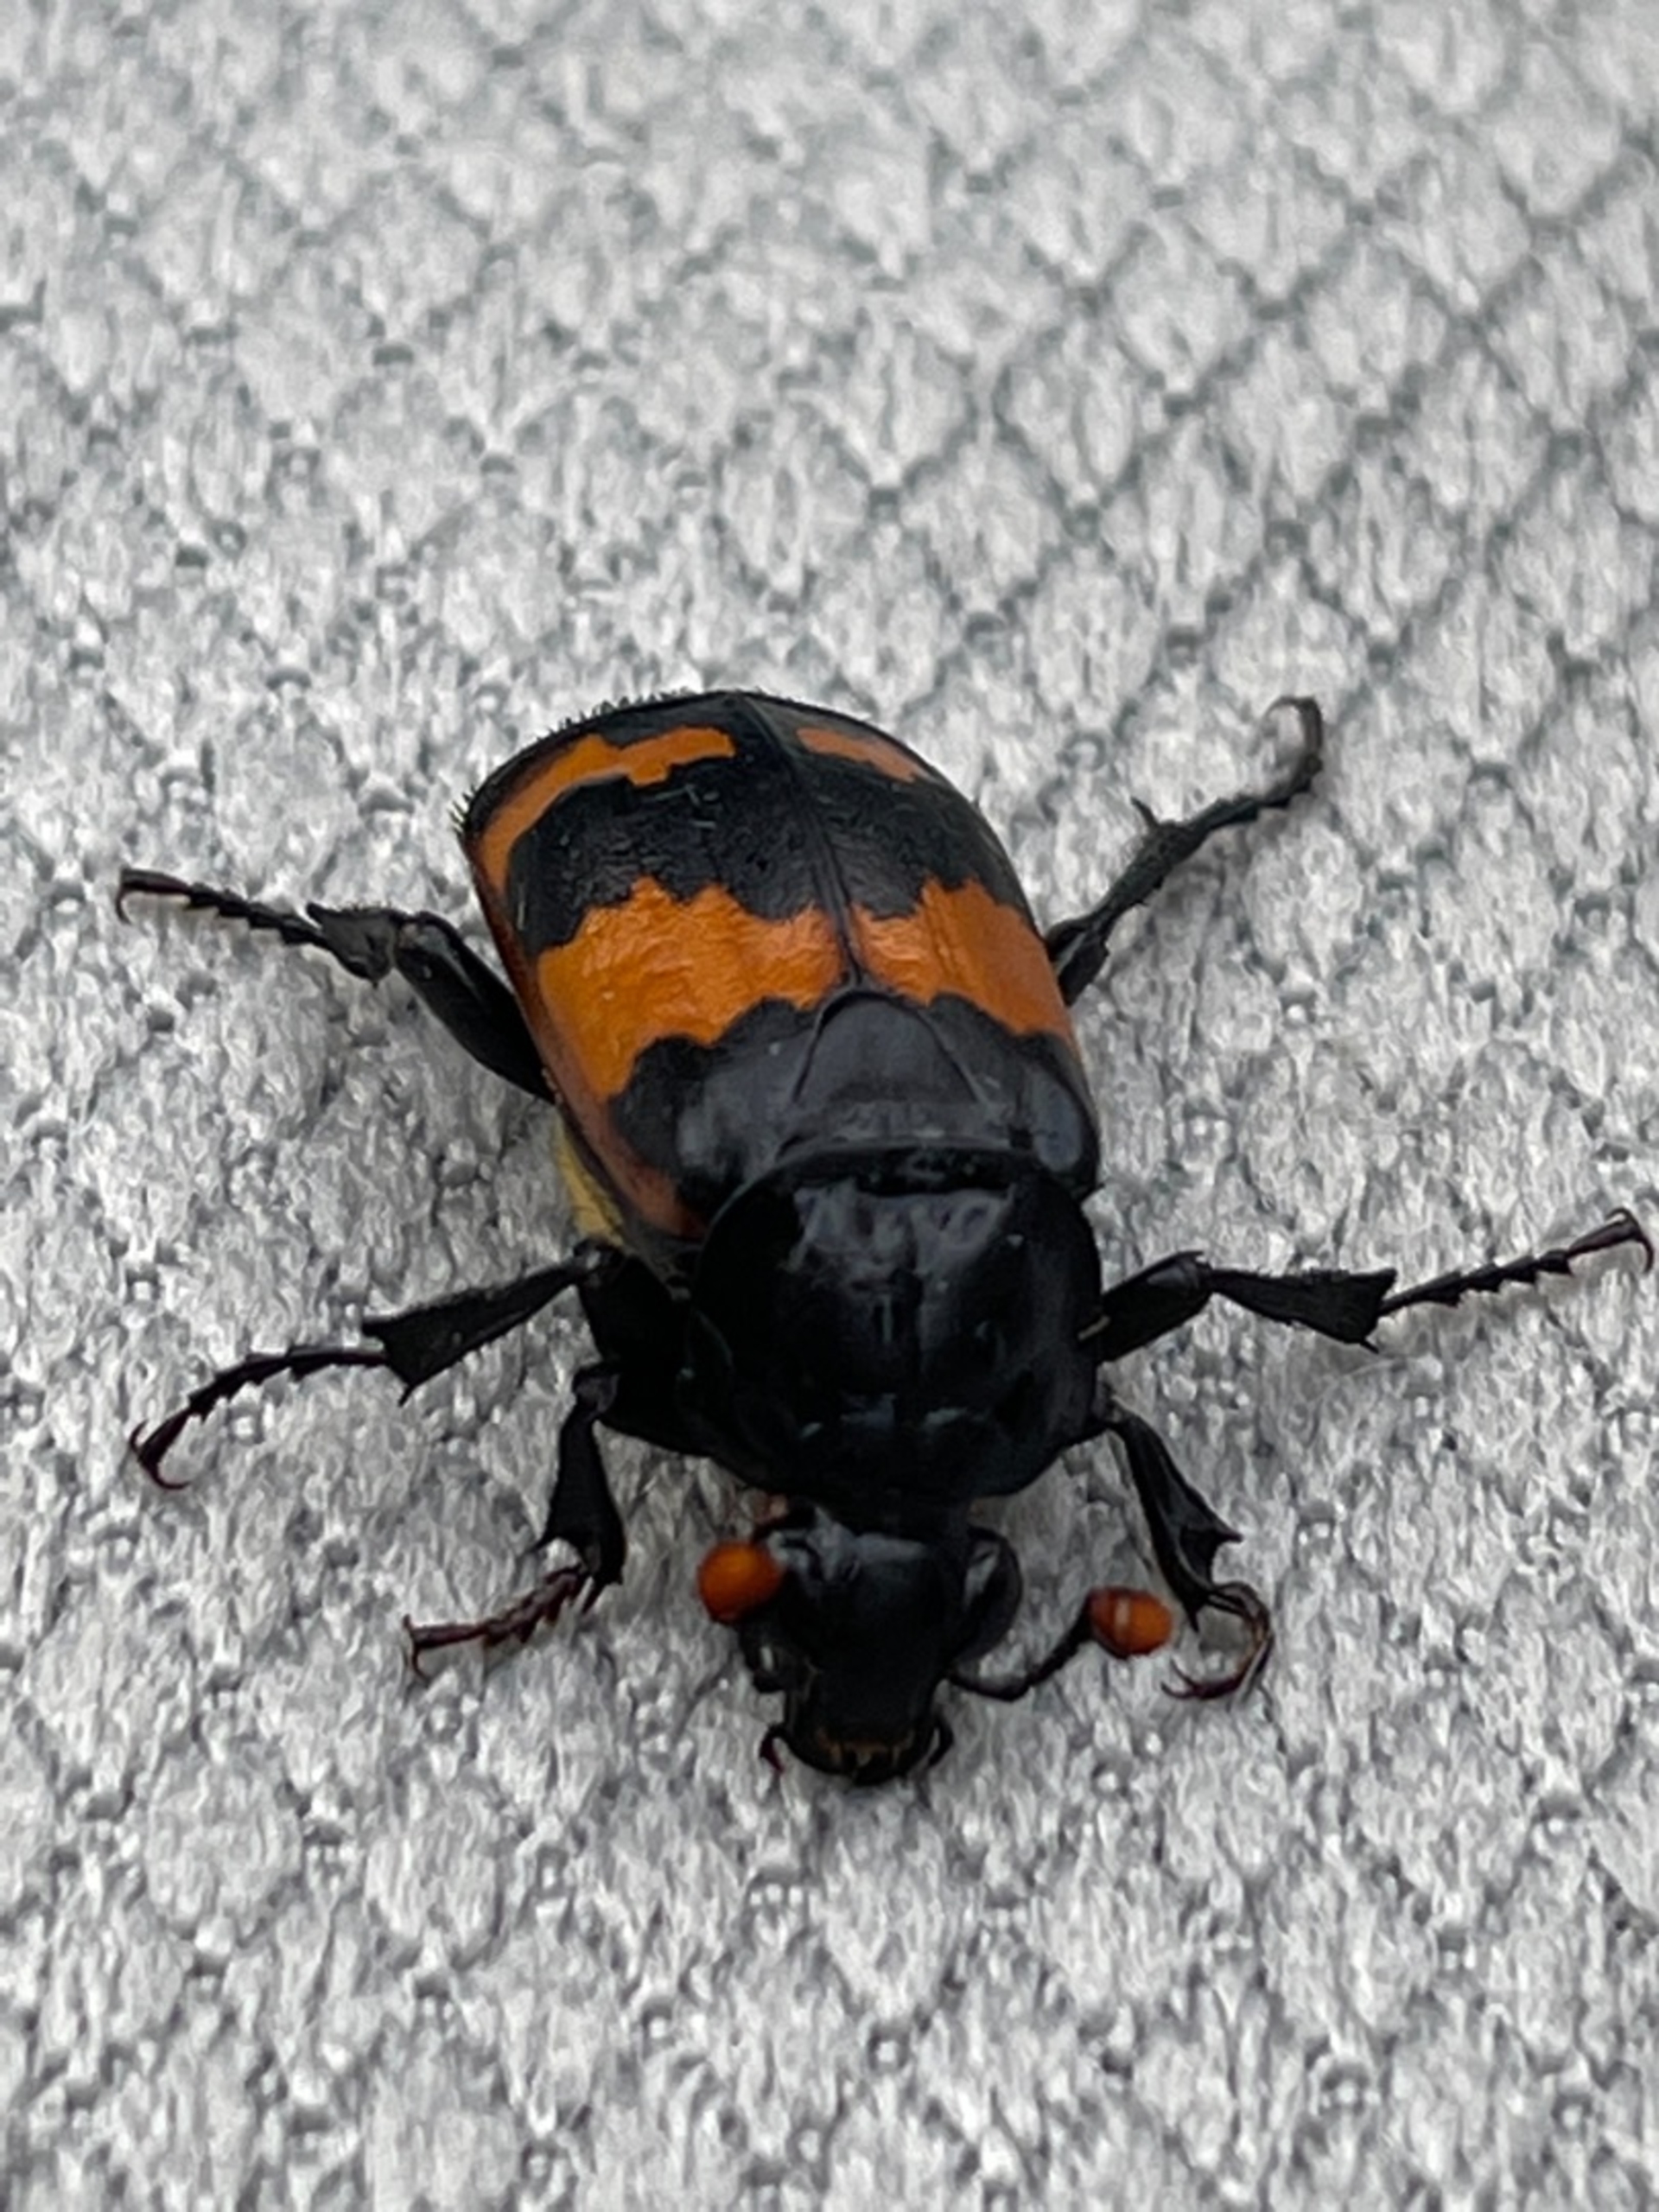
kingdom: Animalia
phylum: Arthropoda
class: Insecta
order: Coleoptera
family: Staphylinidae
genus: Nicrophorus
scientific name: Nicrophorus investigator
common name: Skovådselgraver
